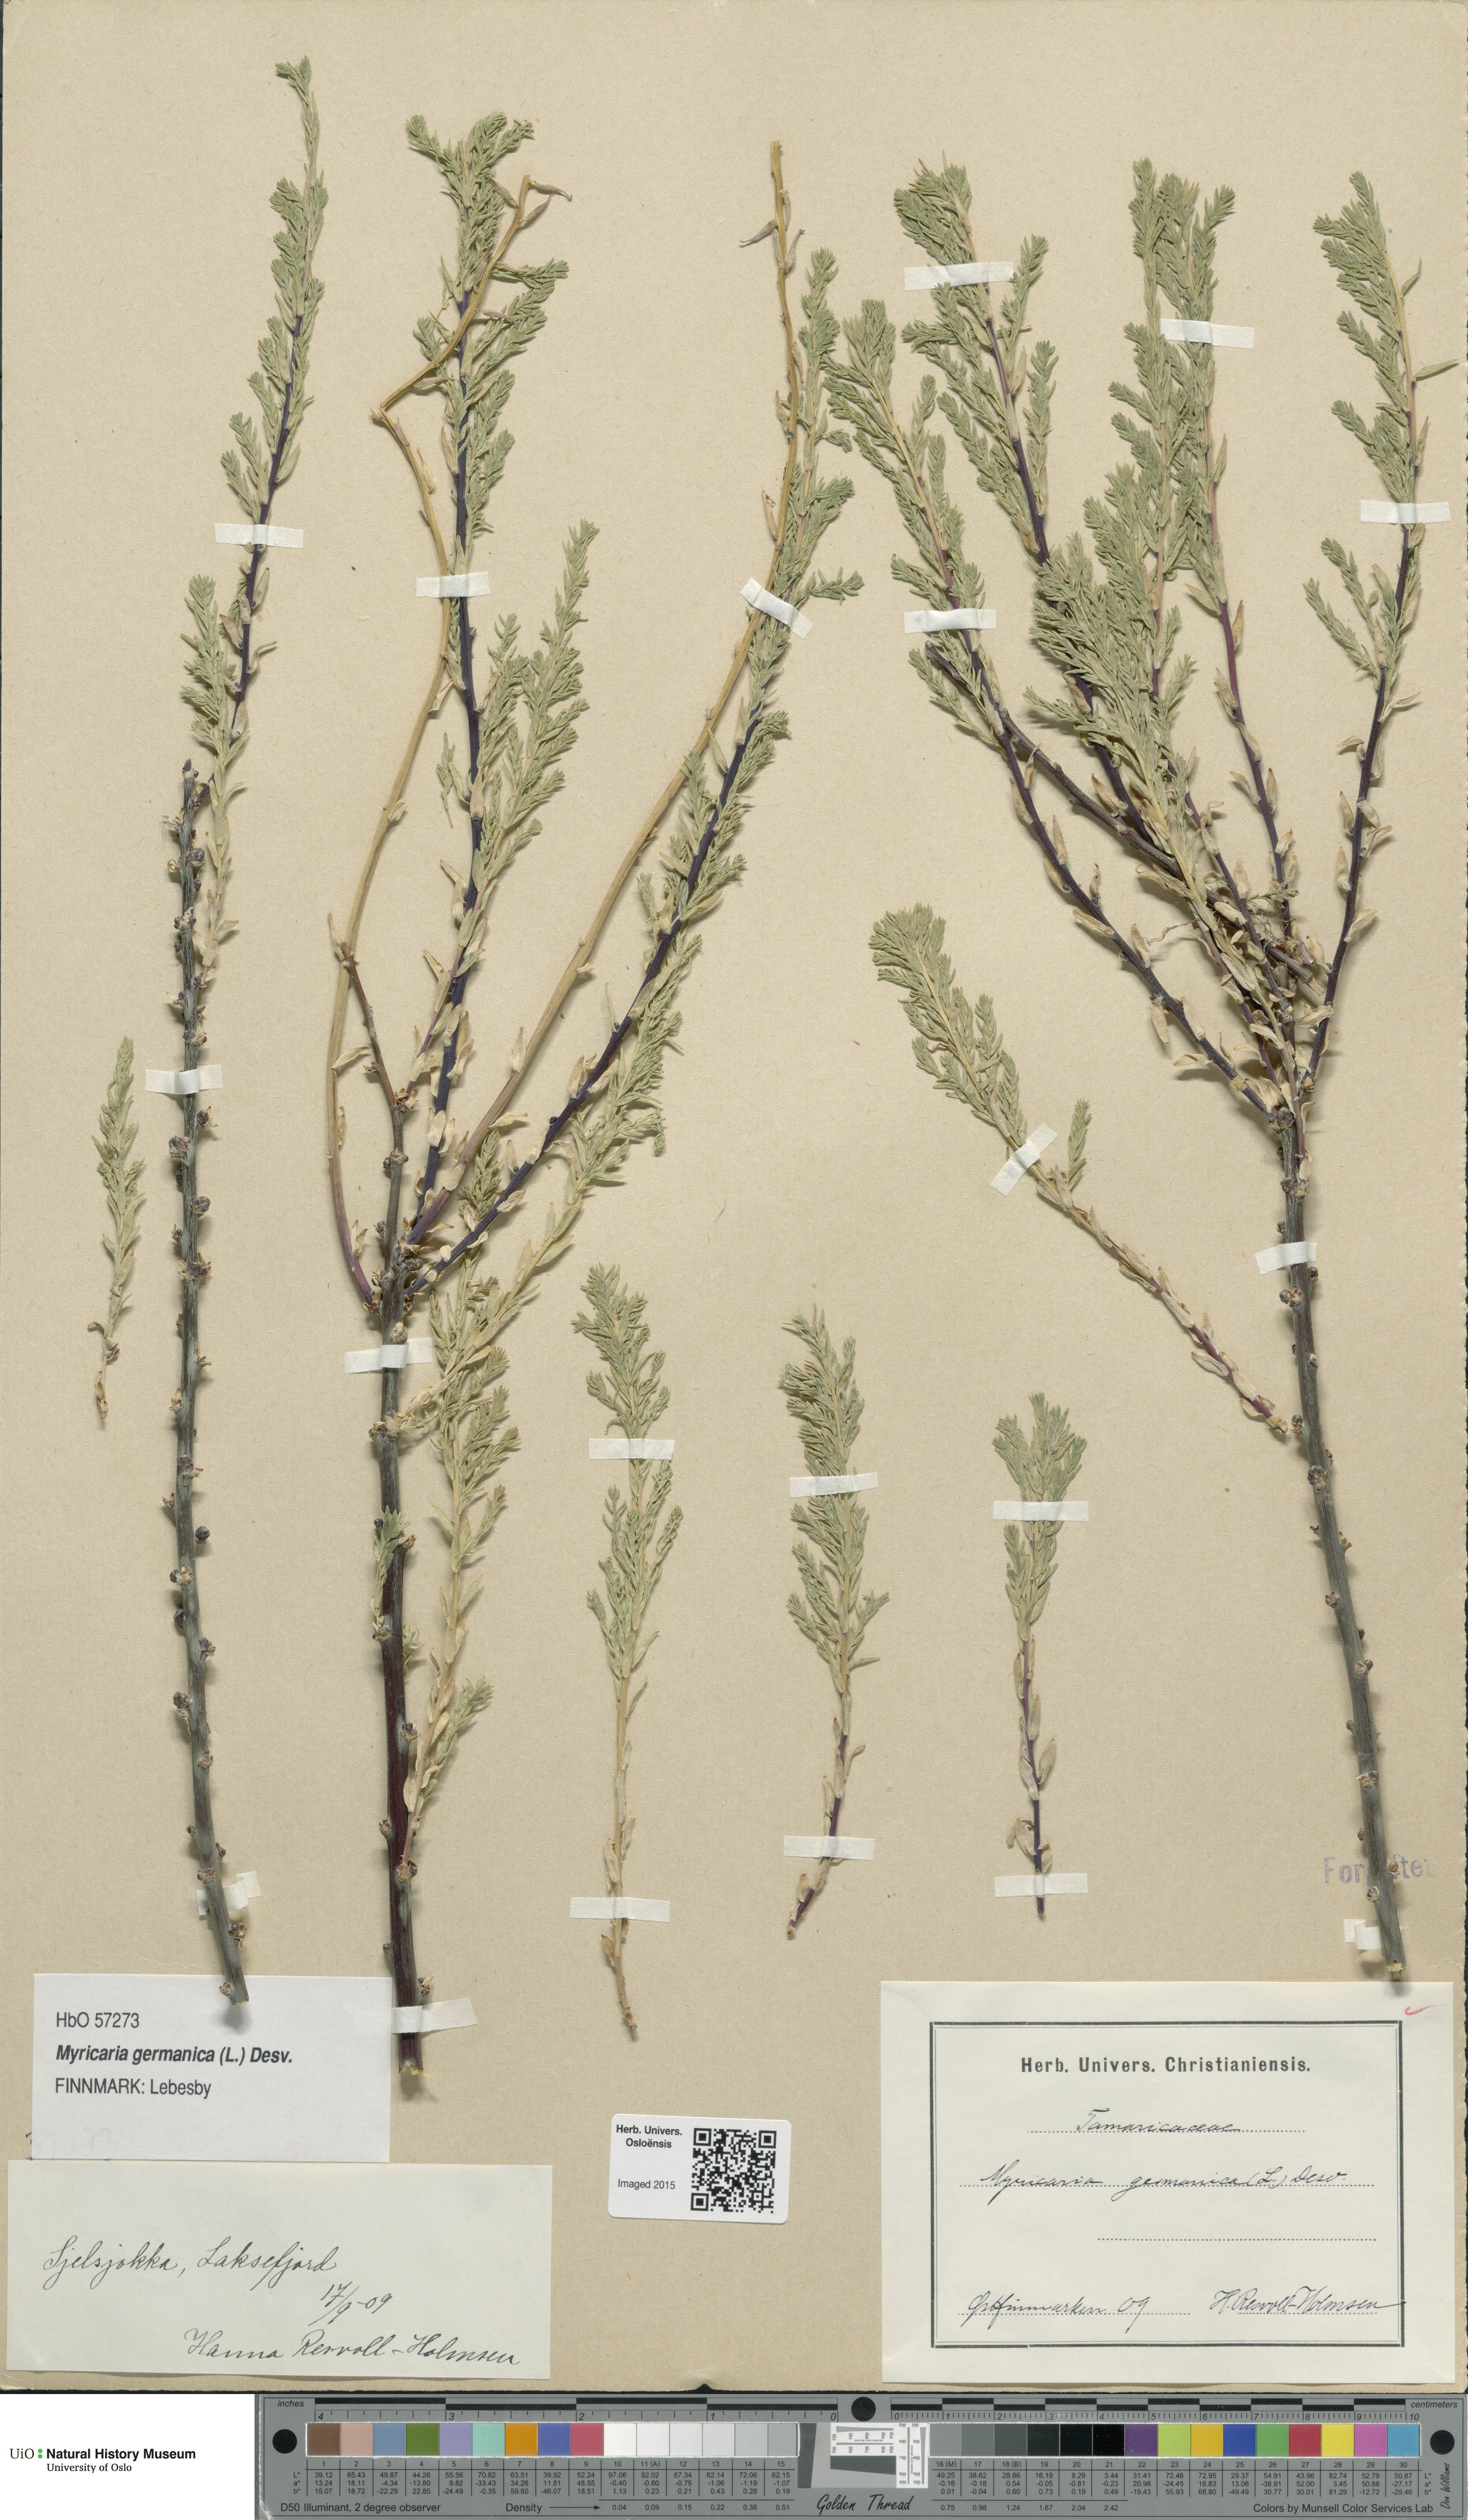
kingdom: Plantae
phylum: Tracheophyta
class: Magnoliopsida
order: Caryophyllales
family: Tamaricaceae
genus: Myricaria
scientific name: Myricaria germanica
